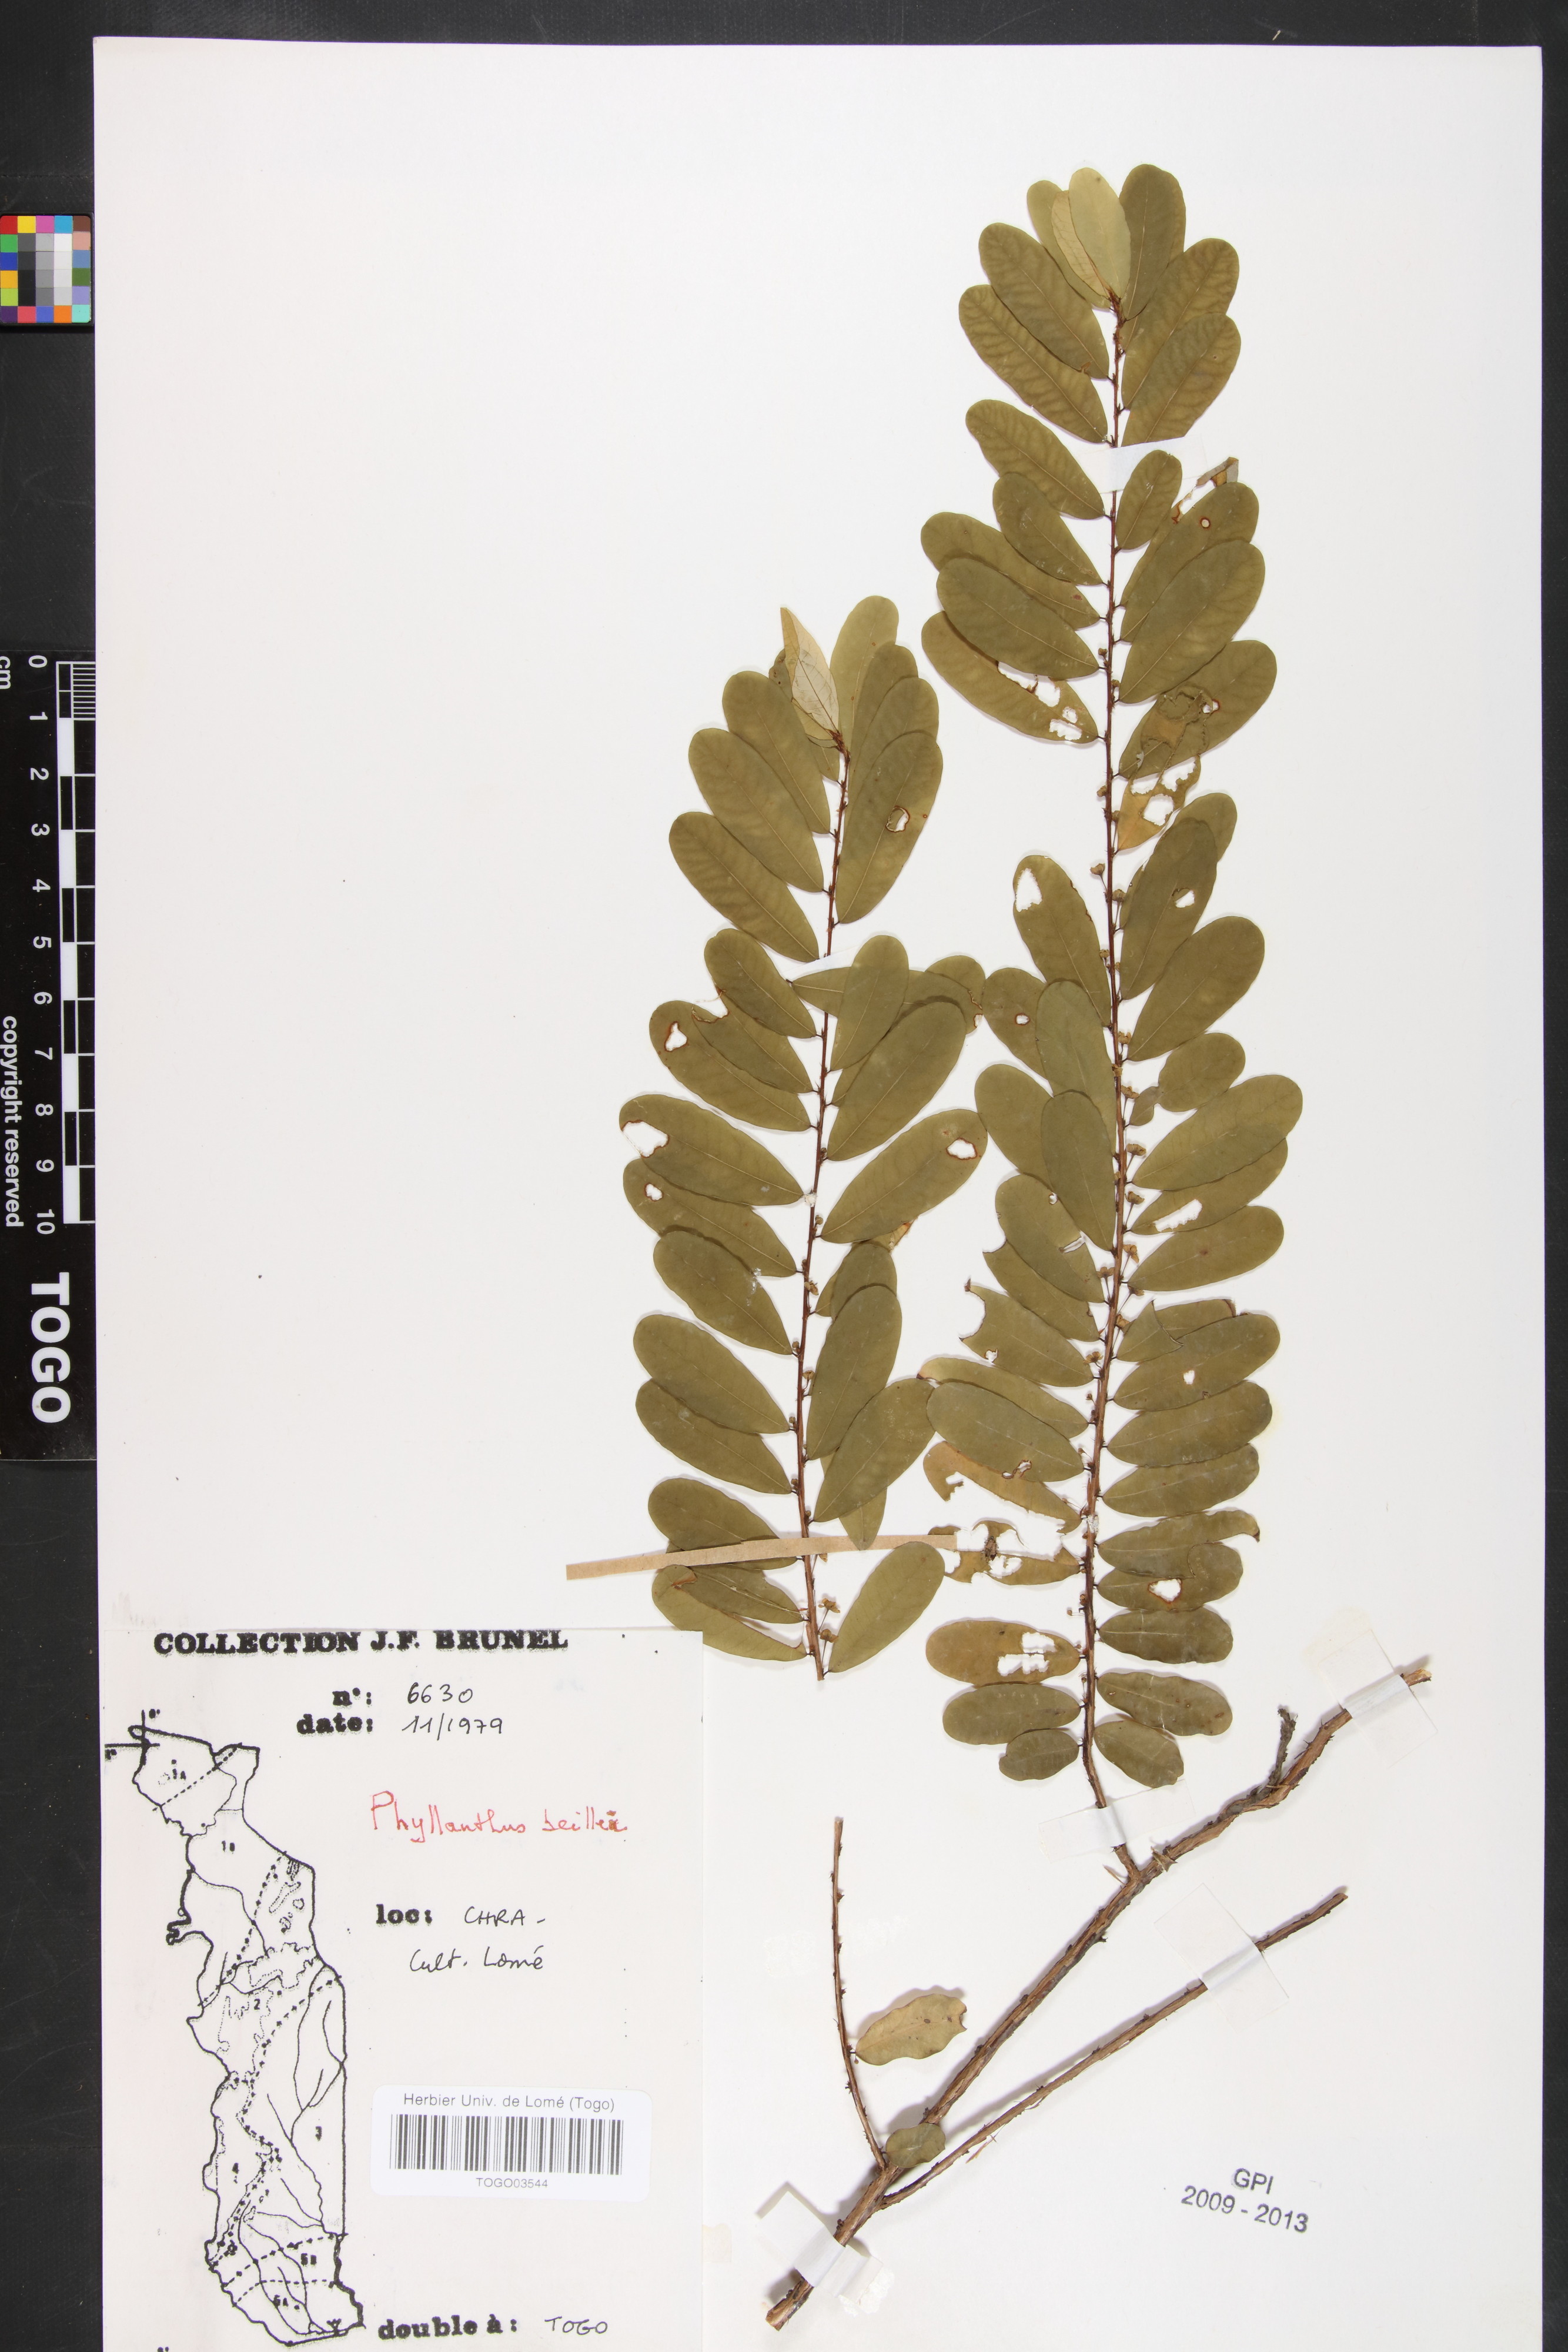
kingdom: Plantae
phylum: Tracheophyta
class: Magnoliopsida
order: Malpighiales
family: Phyllanthaceae
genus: Phyllanthus
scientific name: Phyllanthus welwitschianus
